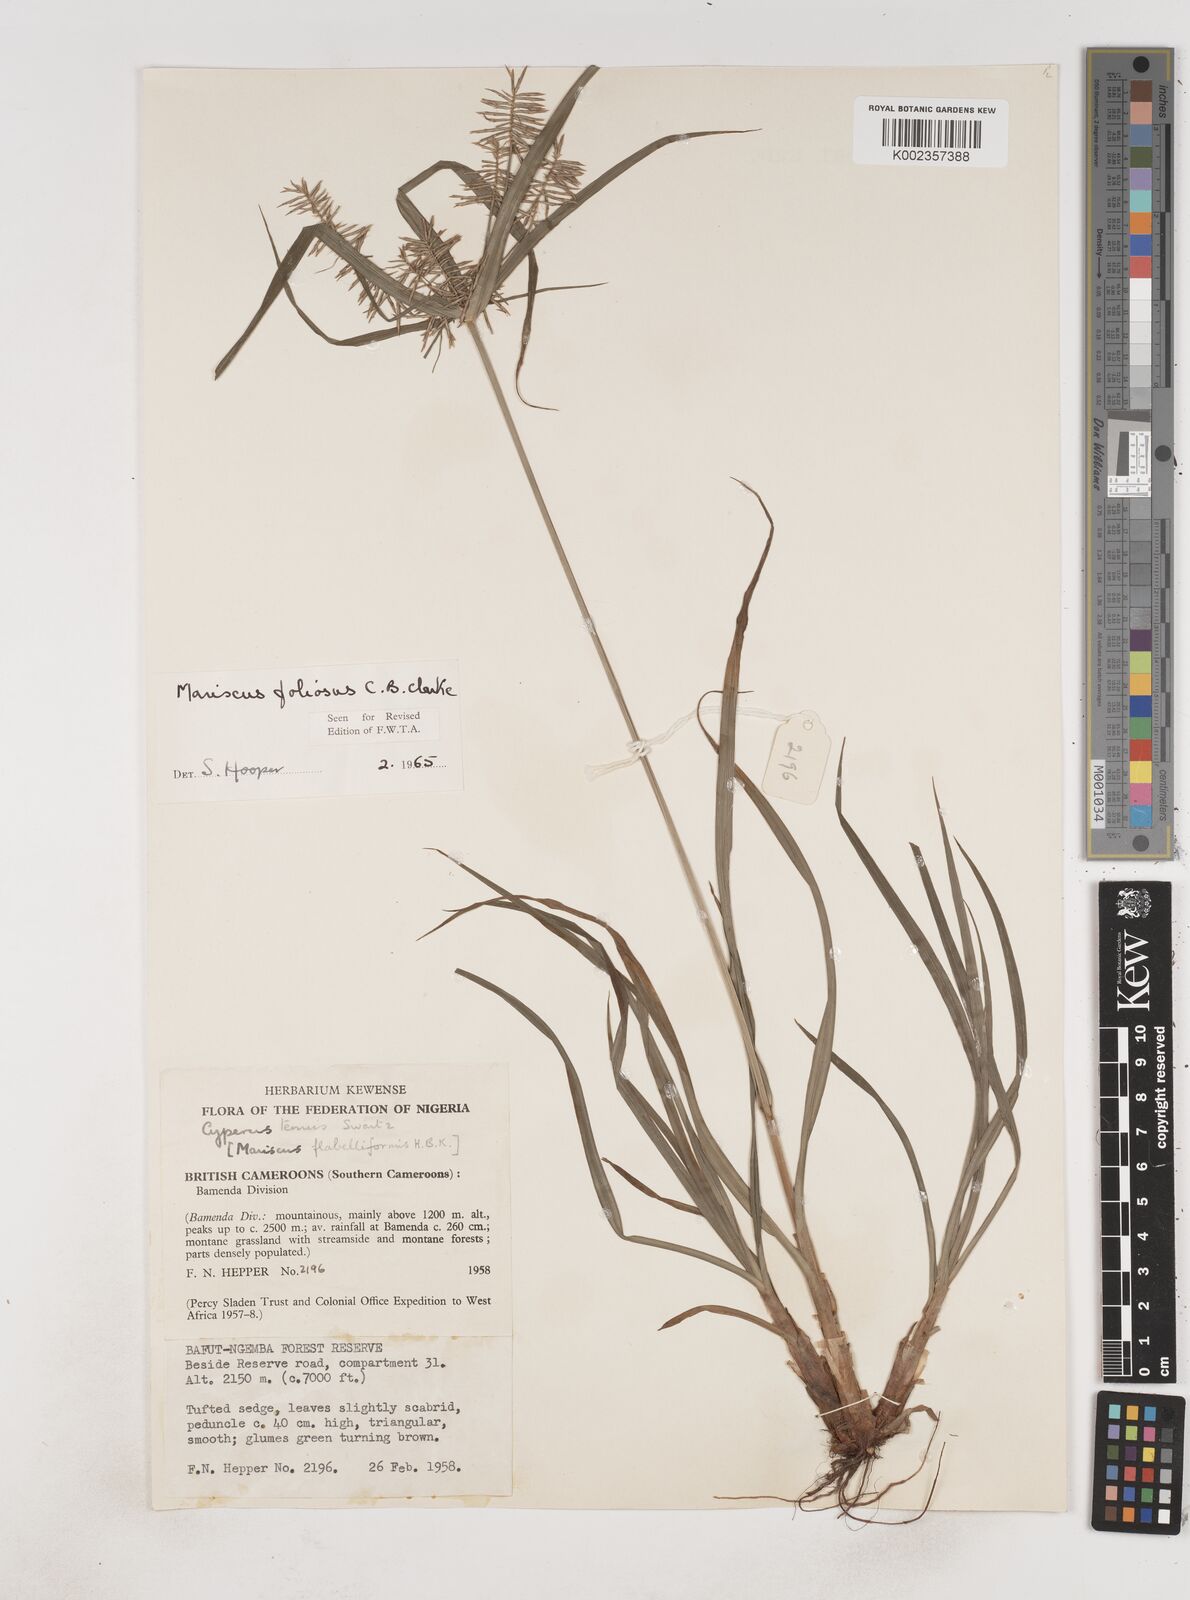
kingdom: Plantae
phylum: Tracheophyta
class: Liliopsida
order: Poales
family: Cyperaceae
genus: Cyperus
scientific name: Cyperus
